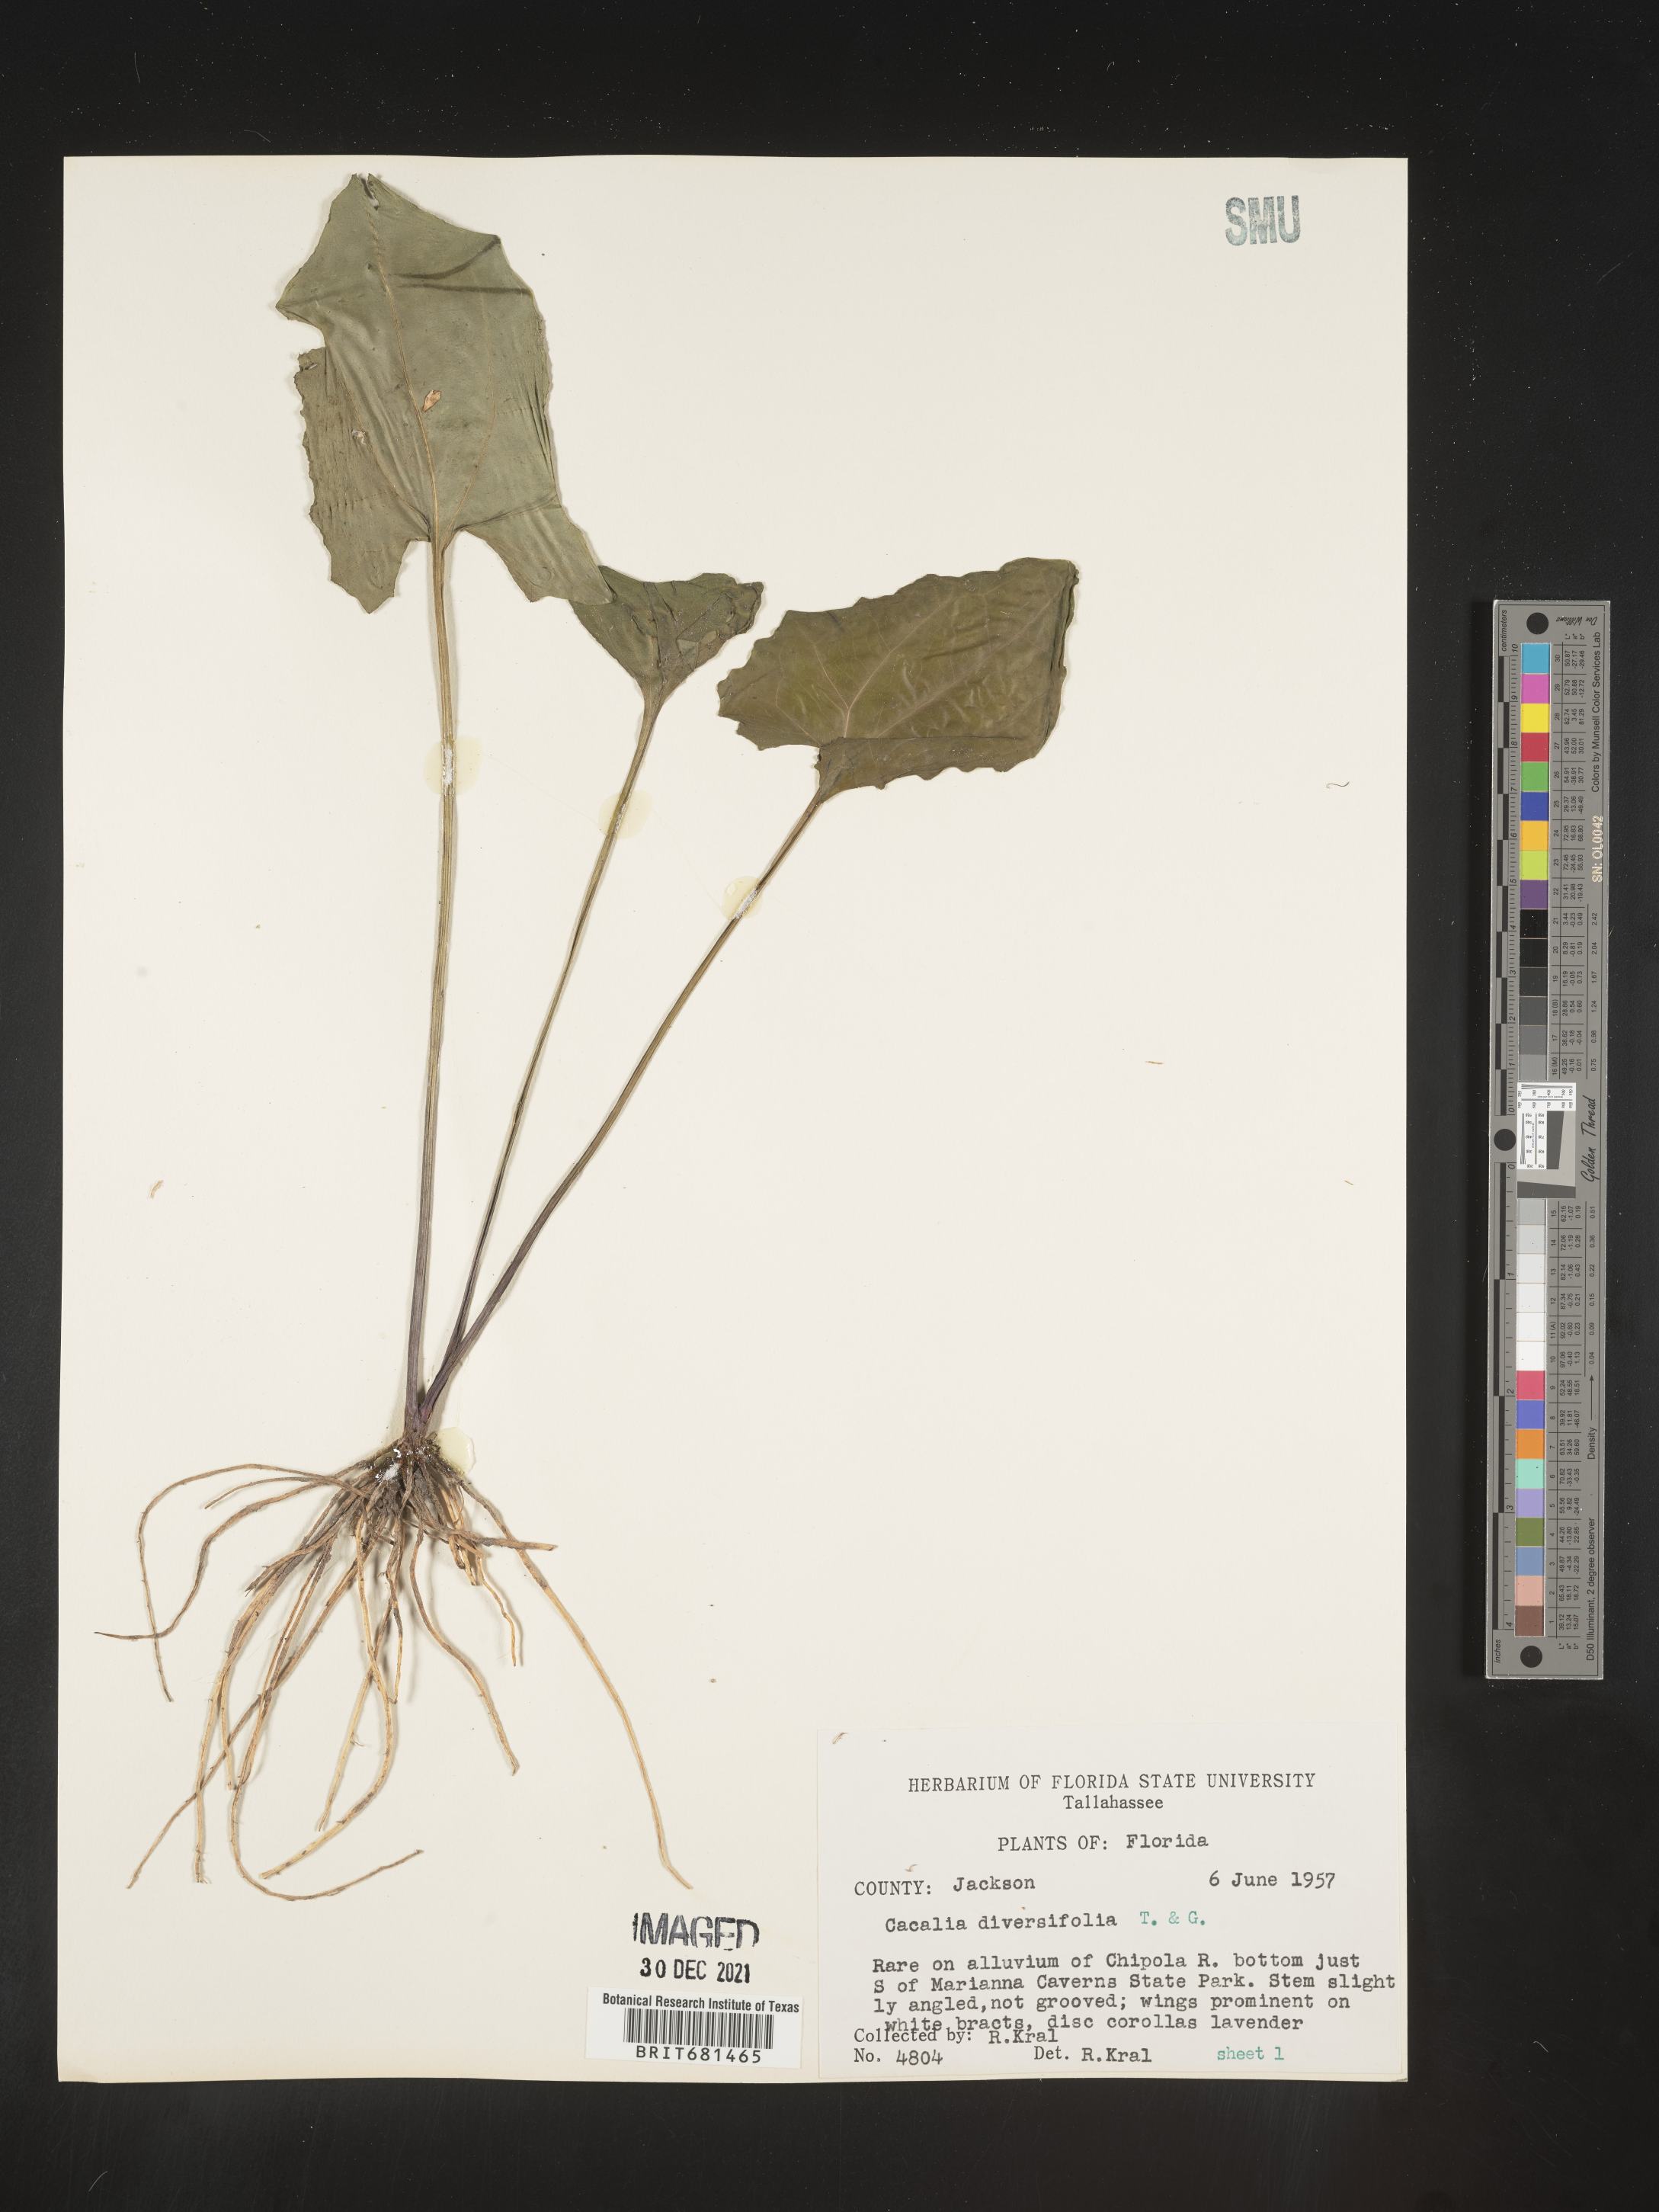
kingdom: Plantae
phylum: Tracheophyta
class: Magnoliopsida
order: Asterales
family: Asteraceae
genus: Arnoglossum
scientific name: Arnoglossum diversifolium
